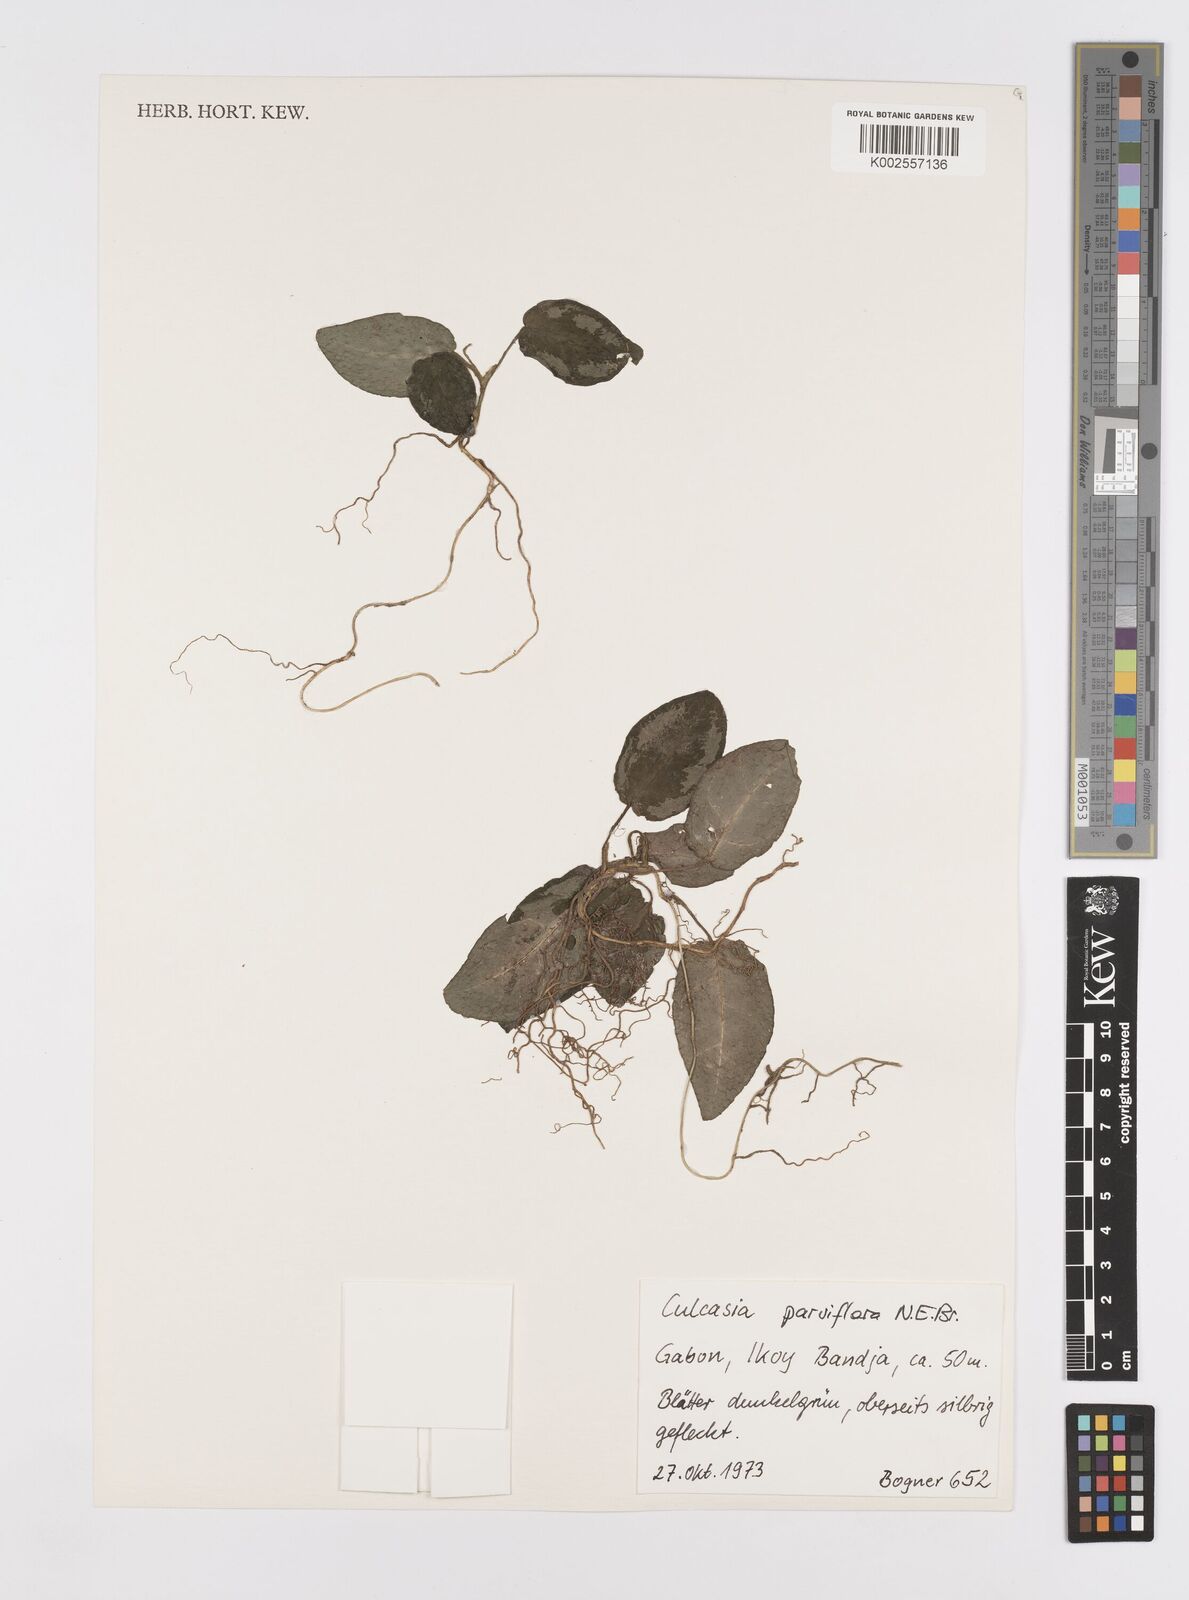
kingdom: Plantae
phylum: Tracheophyta
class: Liliopsida
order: Alismatales
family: Araceae
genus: Culcasia
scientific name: Culcasia parviflora
